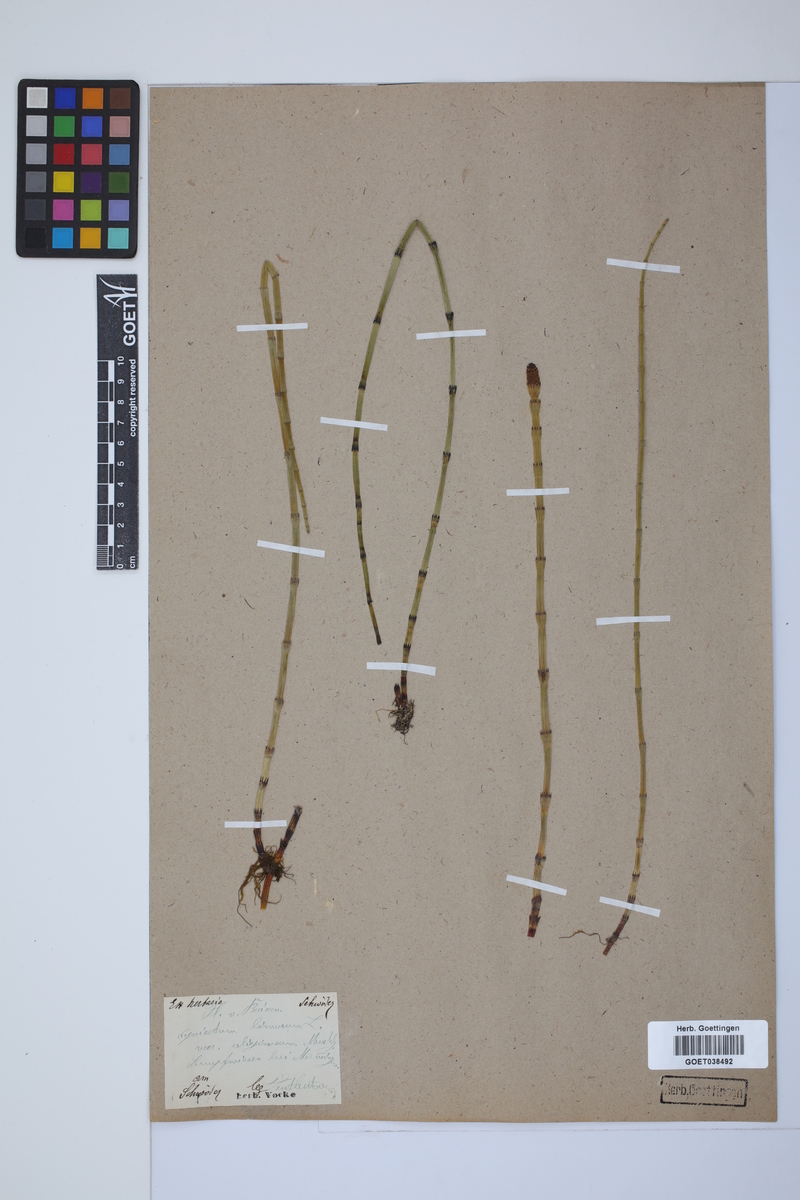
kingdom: Plantae
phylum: Tracheophyta
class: Polypodiopsida
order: Equisetales
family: Equisetaceae
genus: Equisetum
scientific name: Equisetum fluviatile
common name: Water horsetail
